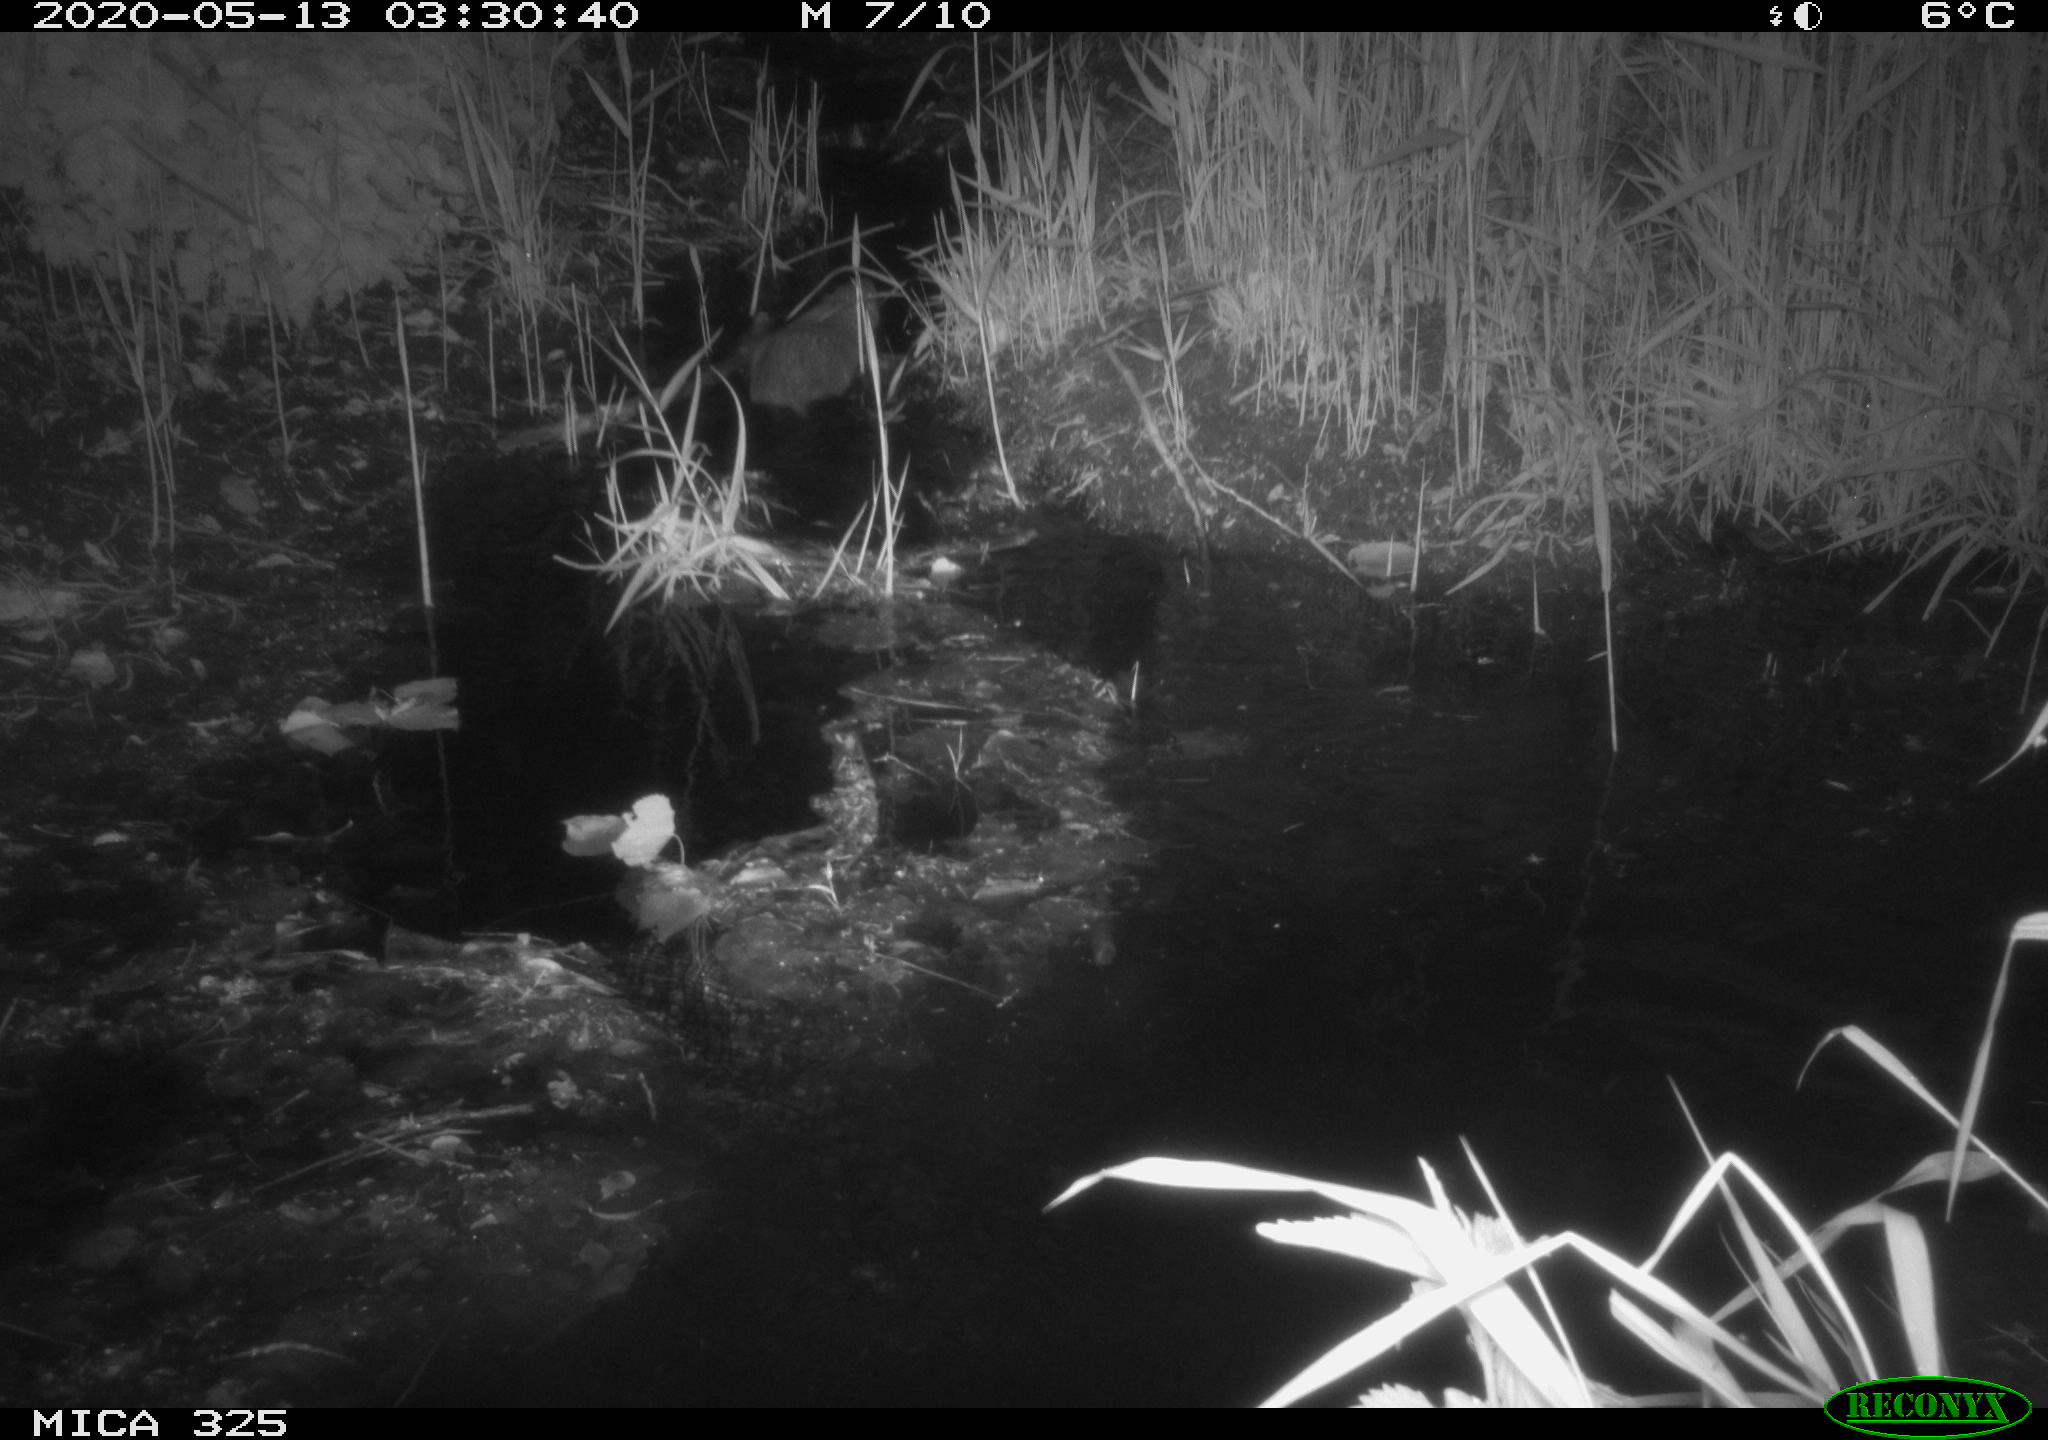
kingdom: Animalia
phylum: Chordata
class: Mammalia
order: Rodentia
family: Myocastoridae
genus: Myocastor
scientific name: Myocastor coypus
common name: Coypu
